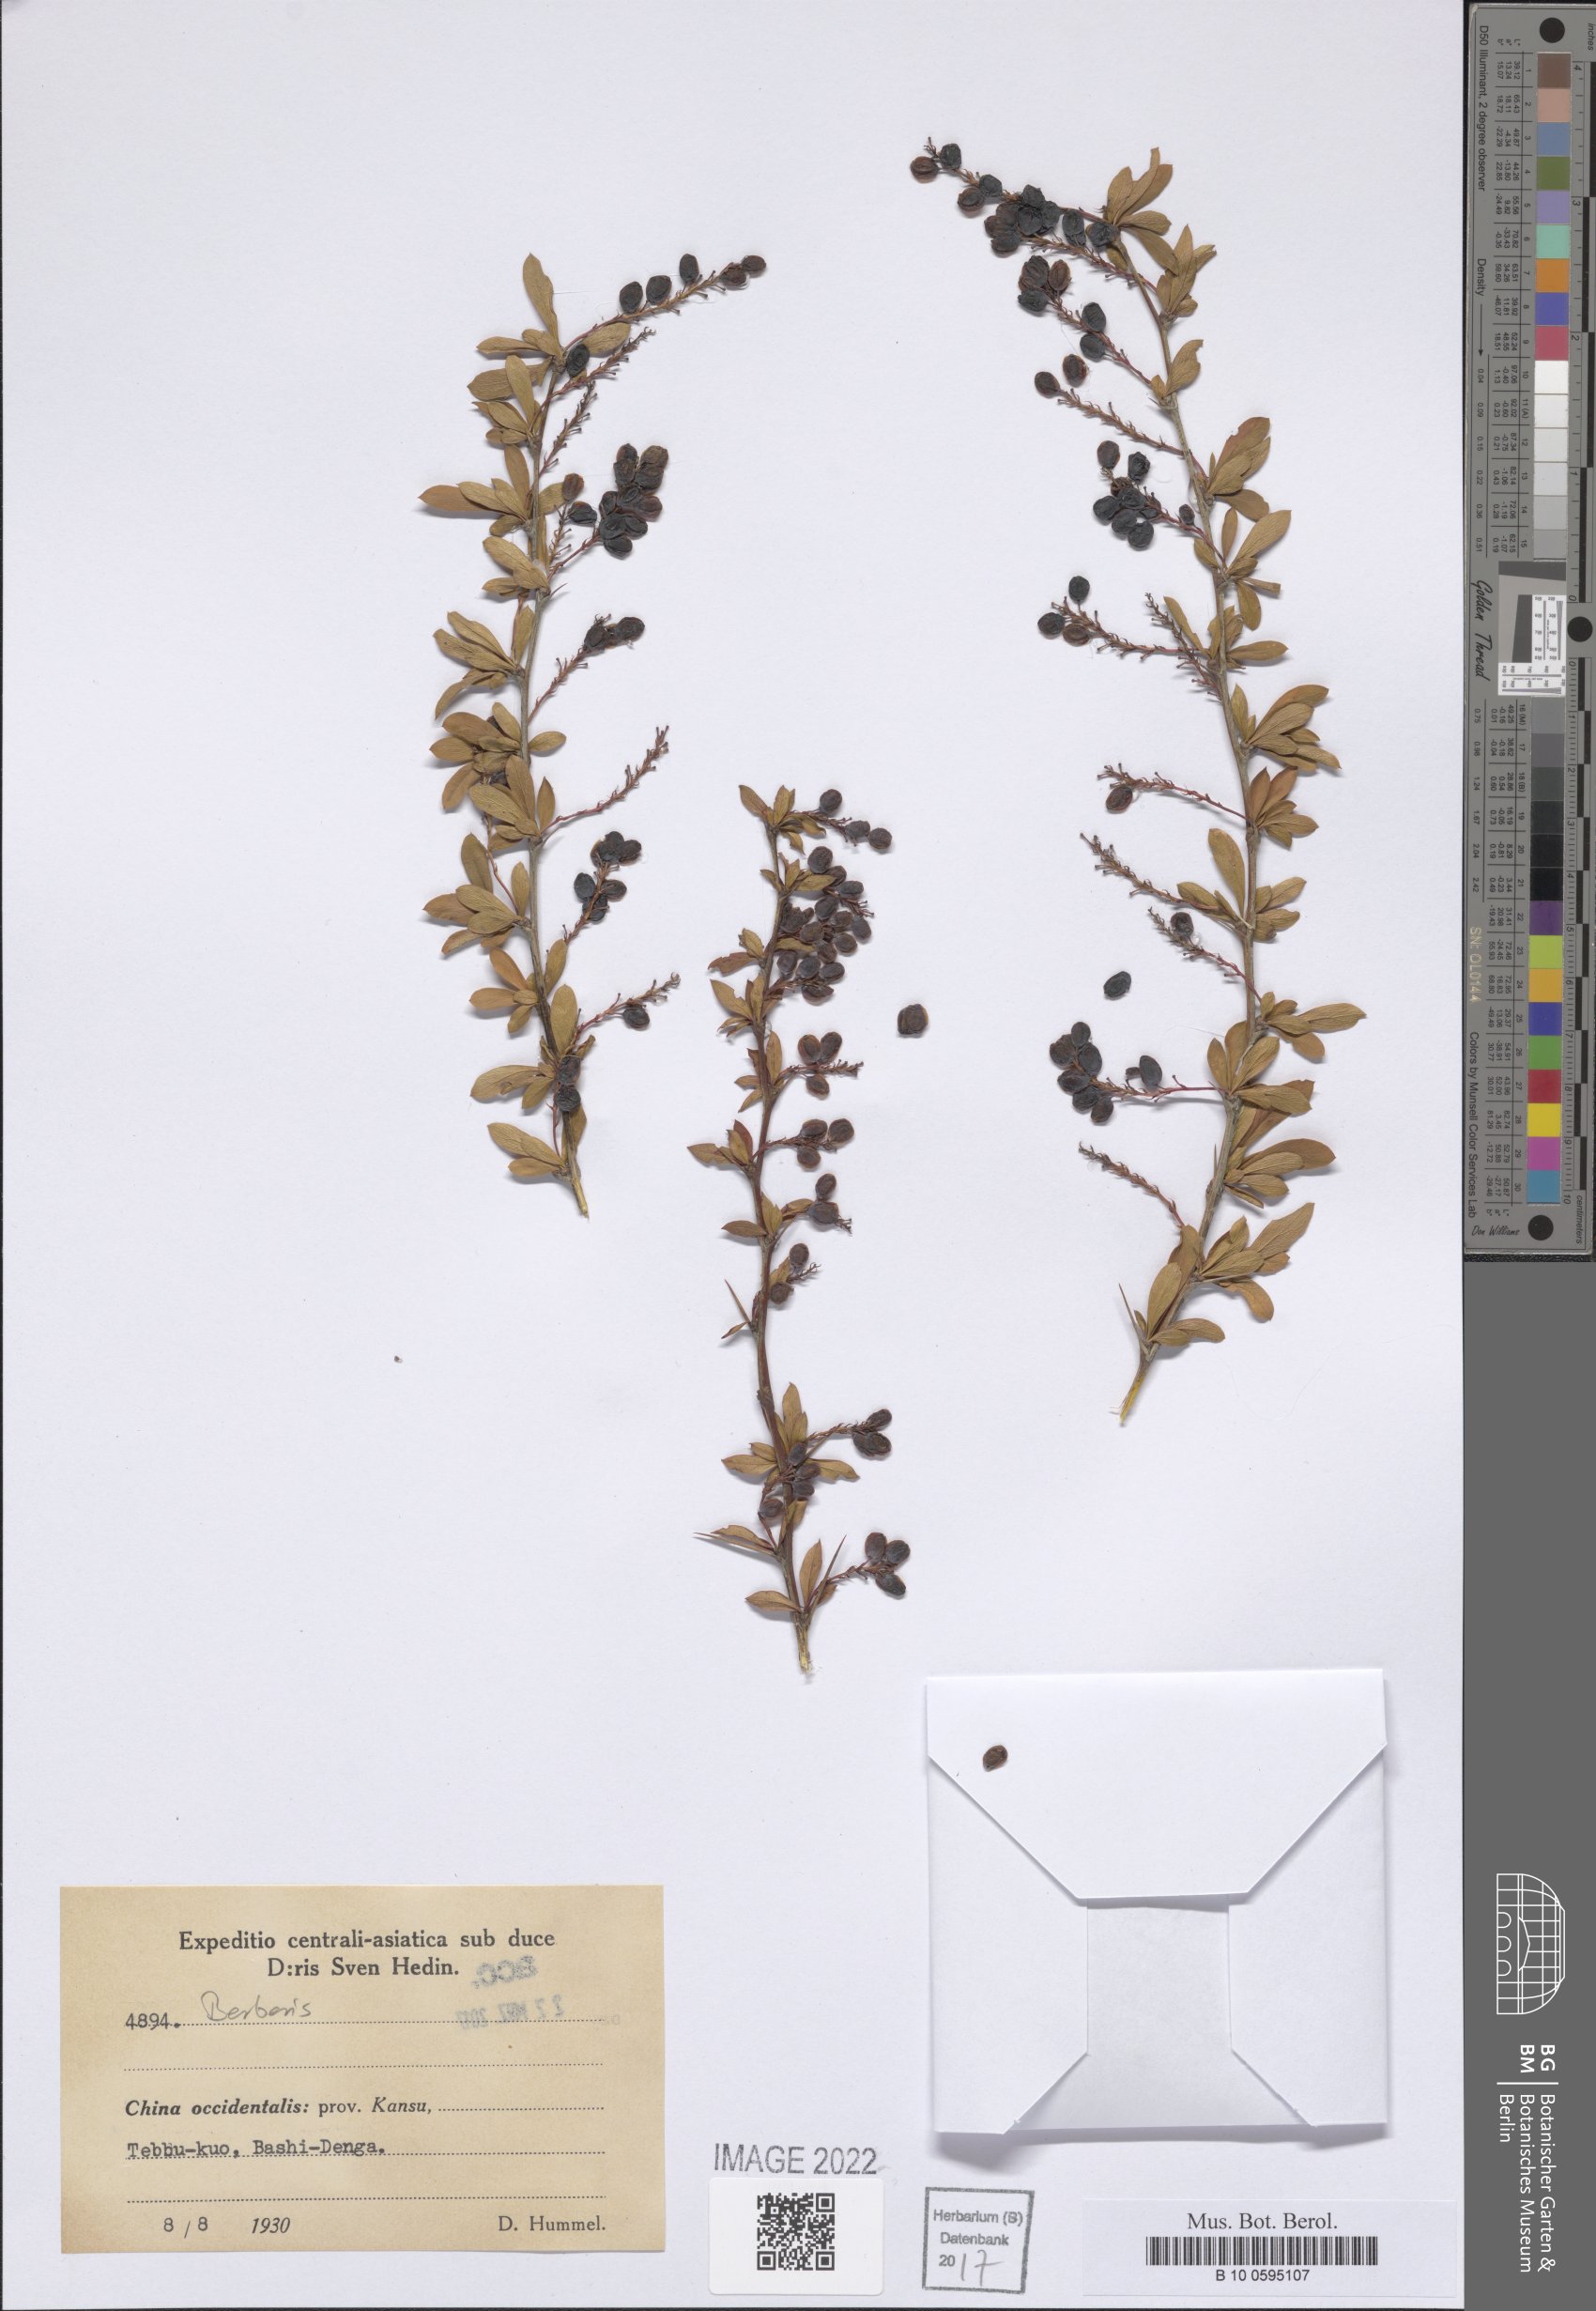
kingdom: Plantae
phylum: Tracheophyta
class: Magnoliopsida
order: Ranunculales
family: Berberidaceae
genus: Berberis
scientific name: Berberis
